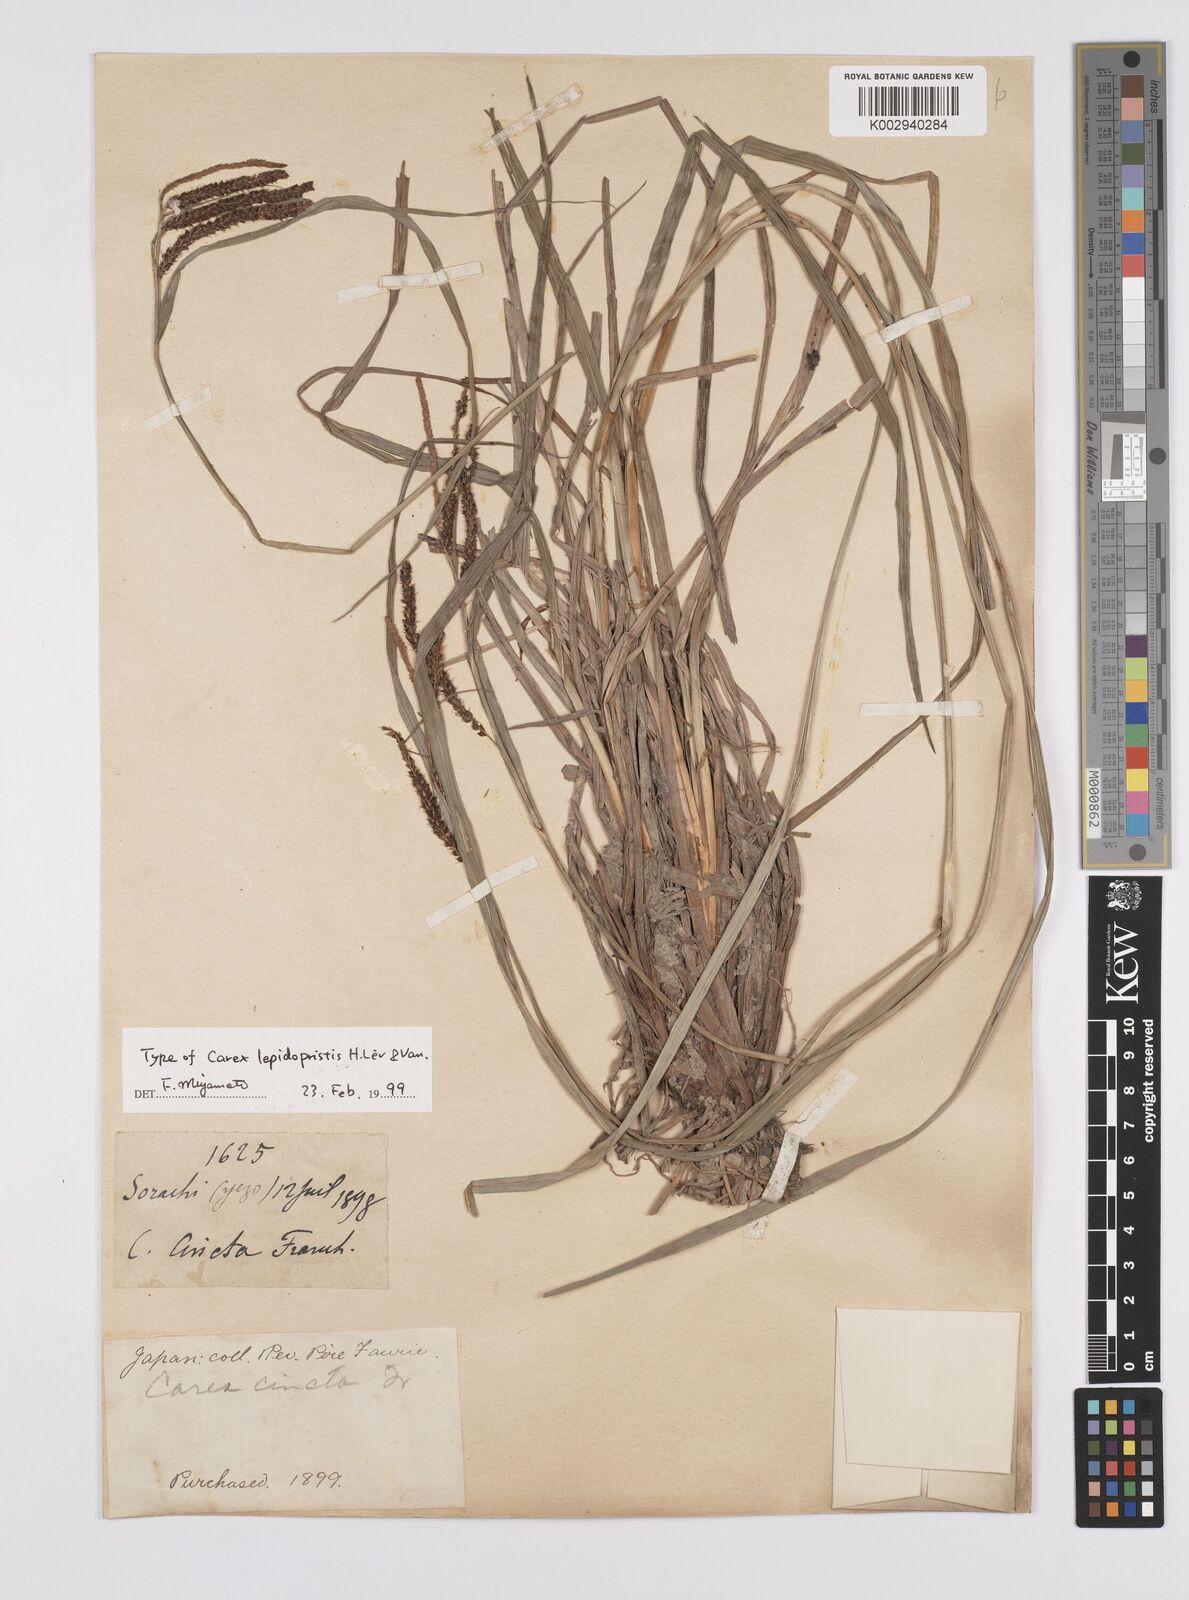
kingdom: Plantae
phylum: Tracheophyta
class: Liliopsida
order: Poales
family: Cyperaceae
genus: Carex
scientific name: Carex phacota
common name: Lakeshore sedge
